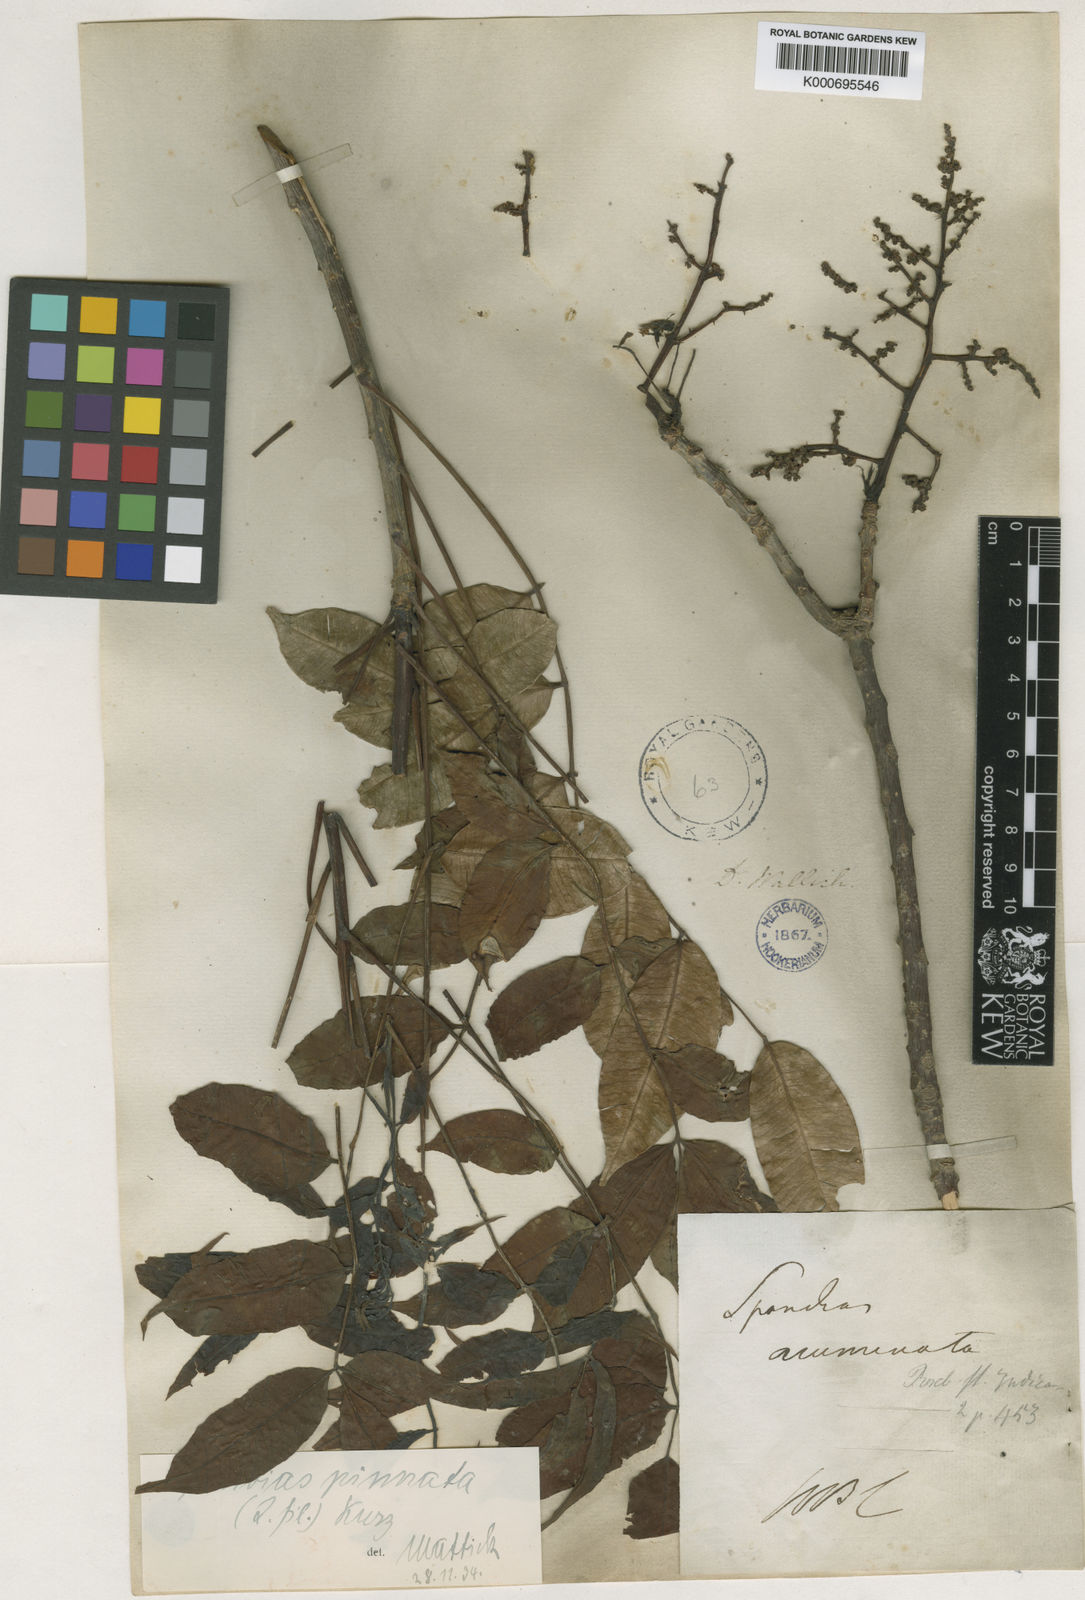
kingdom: Plantae
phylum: Tracheophyta
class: Magnoliopsida
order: Sapindales
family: Anacardiaceae
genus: Spondias
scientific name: Spondias pinnata
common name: Common hog-plum
